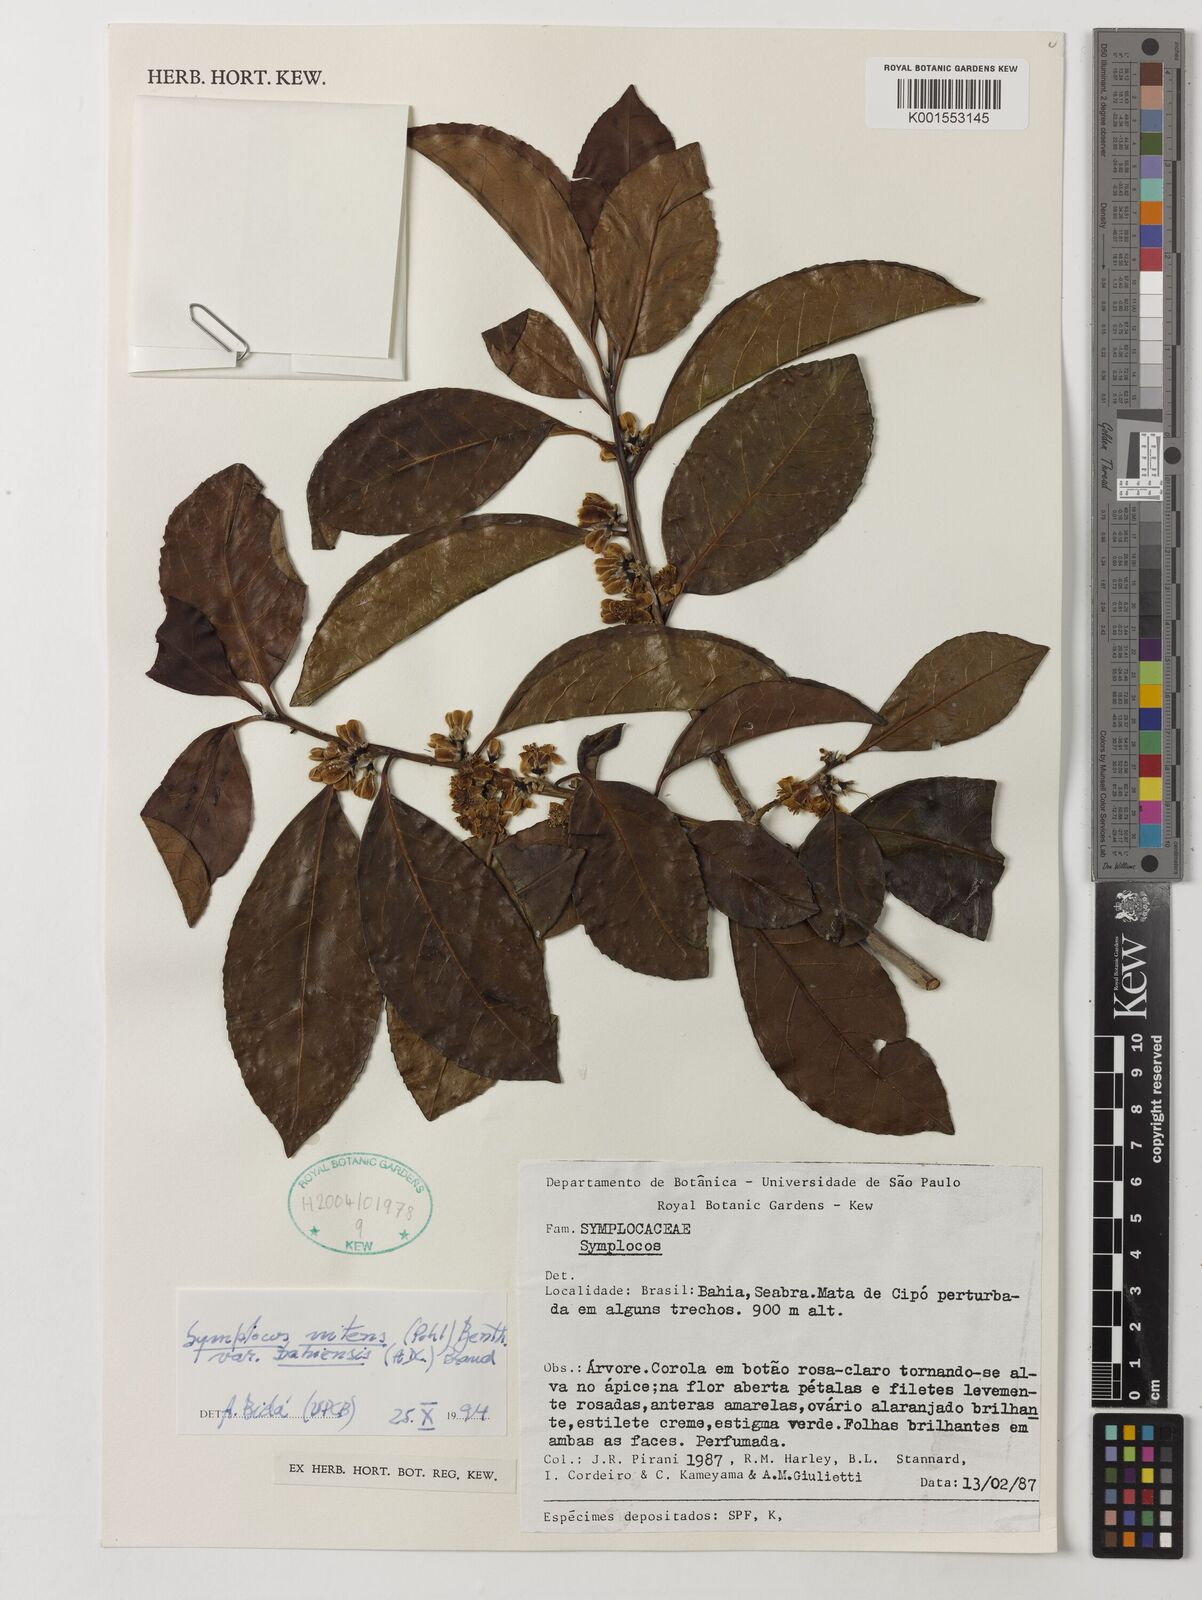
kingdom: Plantae
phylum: Tracheophyta
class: Magnoliopsida
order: Ericales
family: Symplocaceae
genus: Symplocos
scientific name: Symplocos nitens
